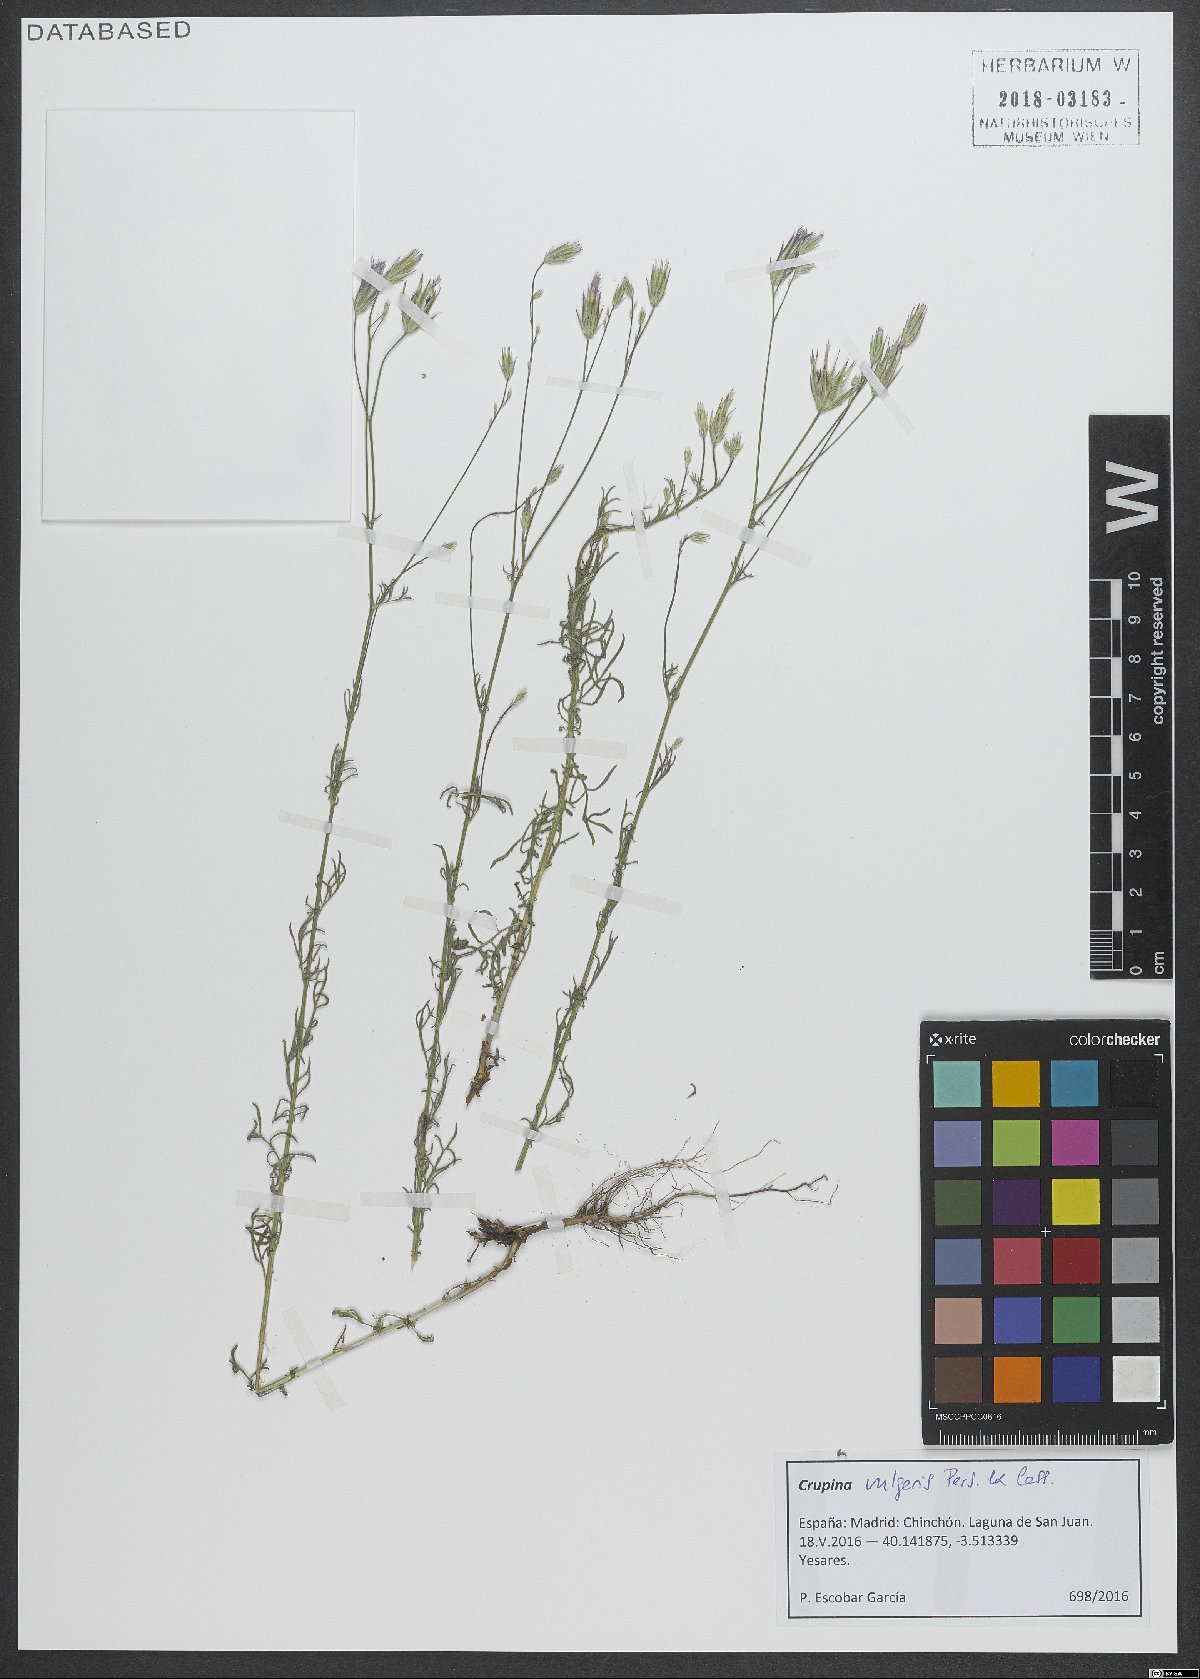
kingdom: Plantae
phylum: Tracheophyta
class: Magnoliopsida
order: Asterales
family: Asteraceae
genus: Crupina
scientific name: Crupina vulgaris
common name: Common crupina
